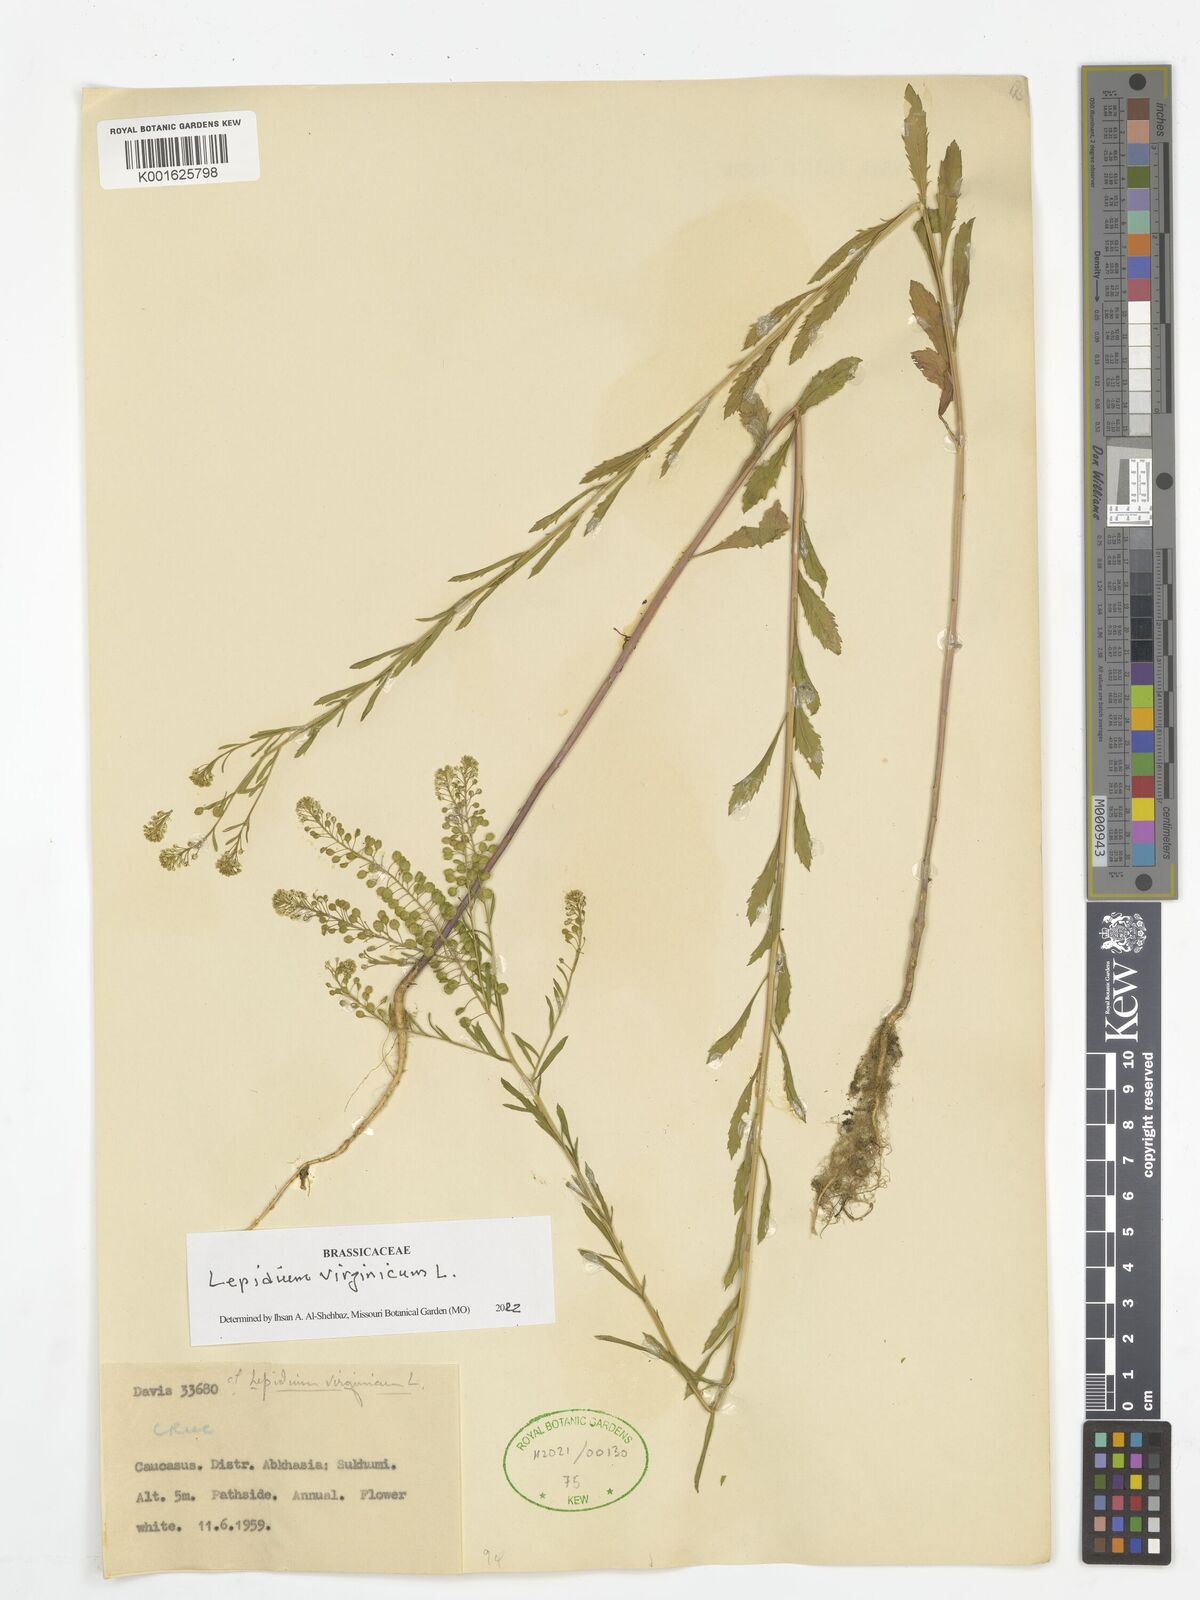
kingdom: Plantae
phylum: Tracheophyta
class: Magnoliopsida
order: Brassicales
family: Brassicaceae
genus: Lepidium
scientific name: Lepidium virginicum
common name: Least pepperwort
